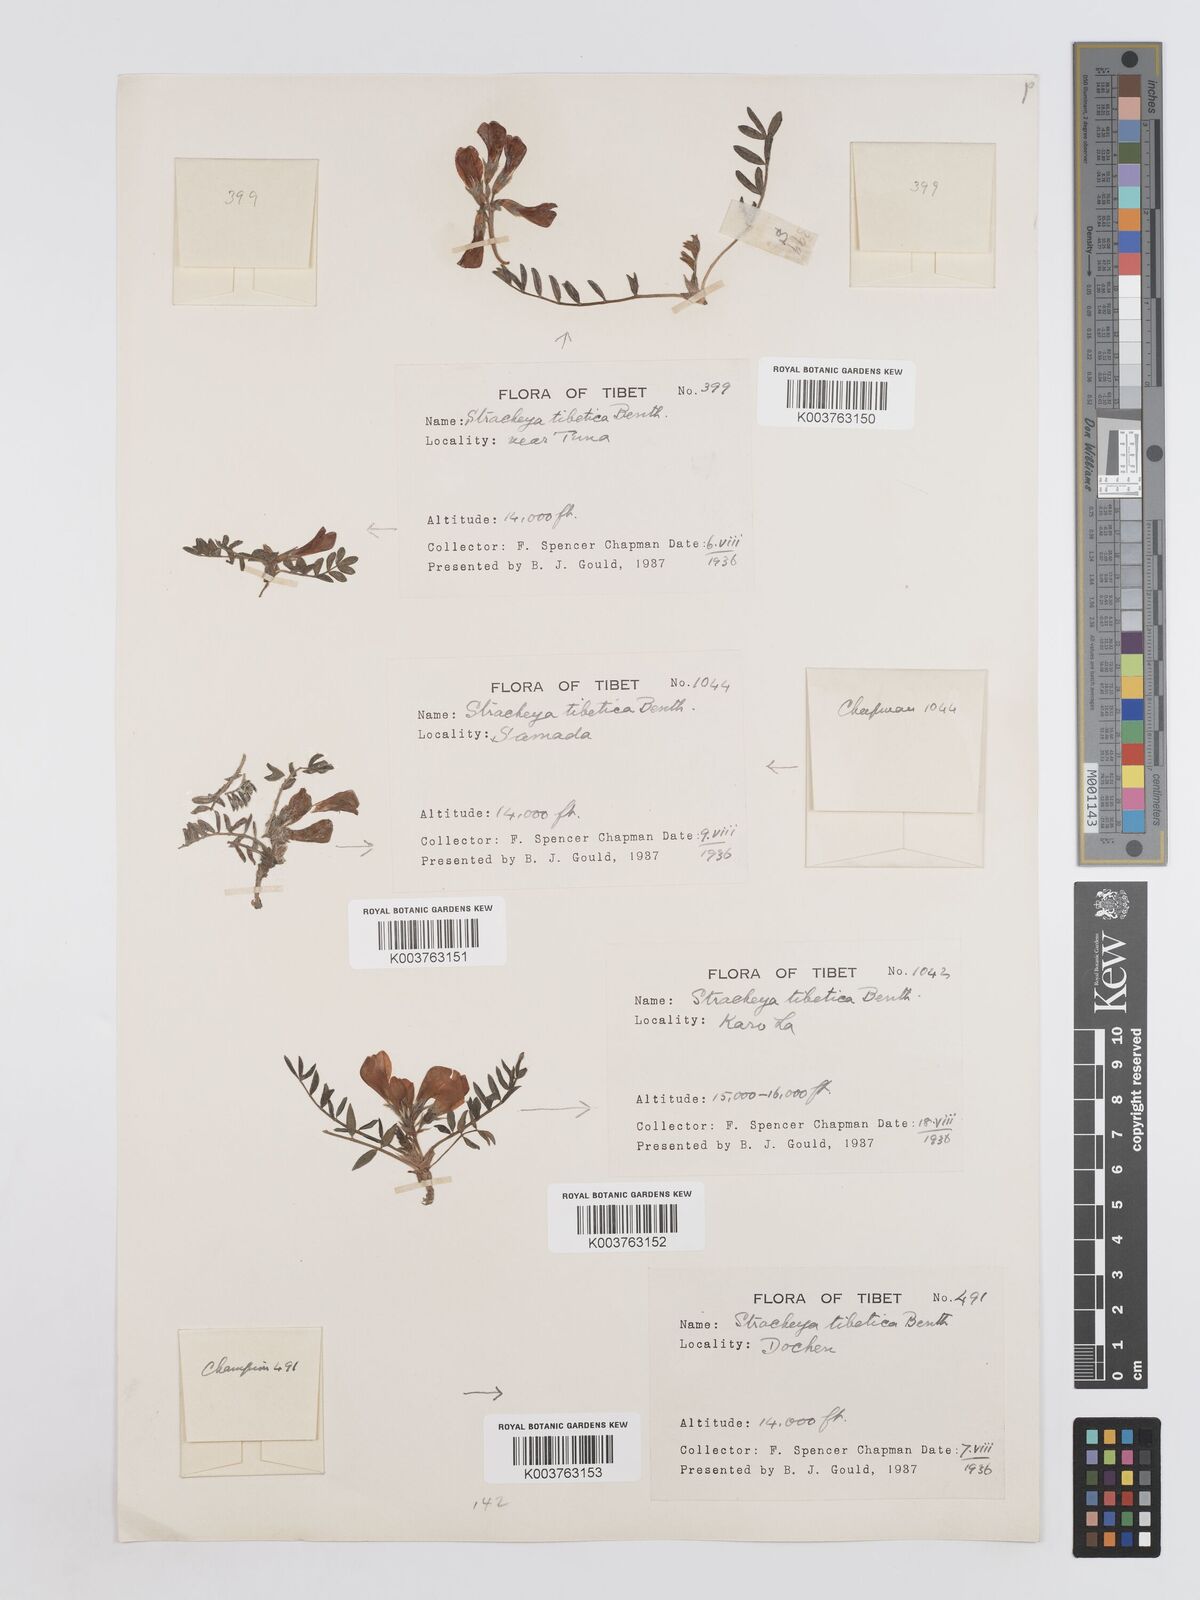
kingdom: Plantae
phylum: Tracheophyta
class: Magnoliopsida
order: Fabales
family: Fabaceae
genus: Hedysarum
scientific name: Hedysarum tibeticum
